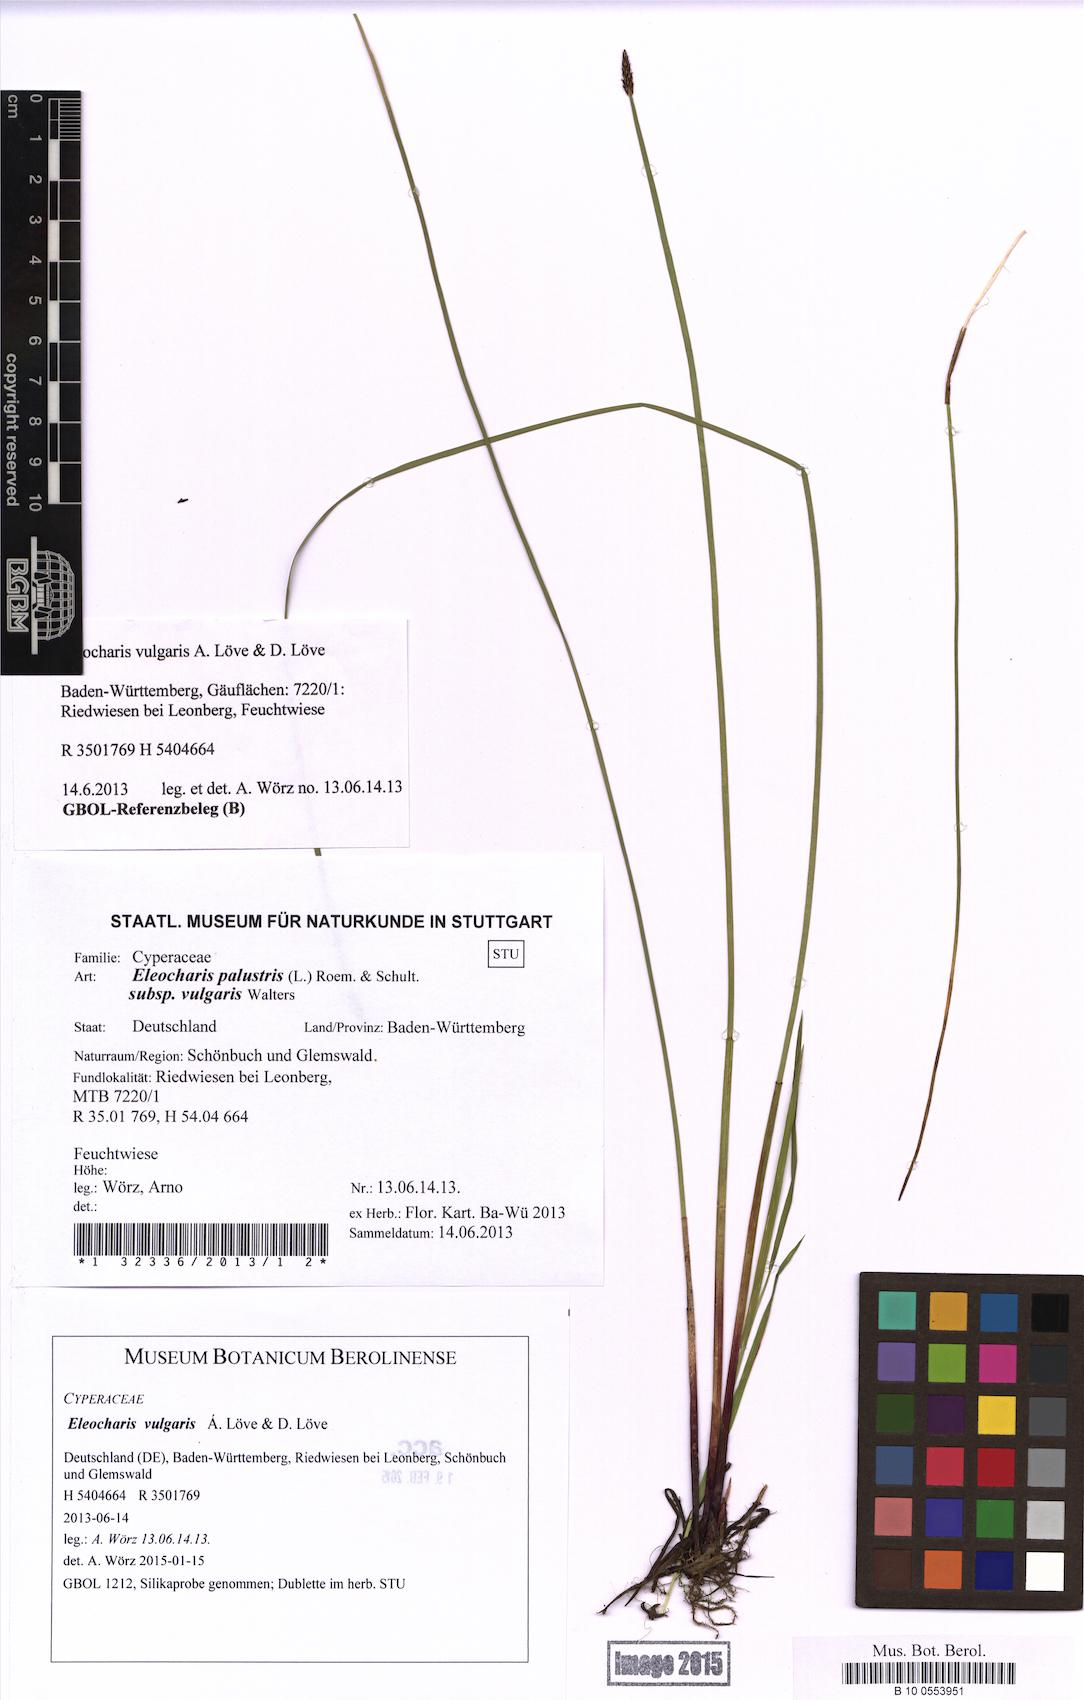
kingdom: Plantae
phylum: Tracheophyta
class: Liliopsida
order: Poales
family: Cyperaceae
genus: Eleocharis
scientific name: Eleocharis palustris
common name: Common spike-rush
